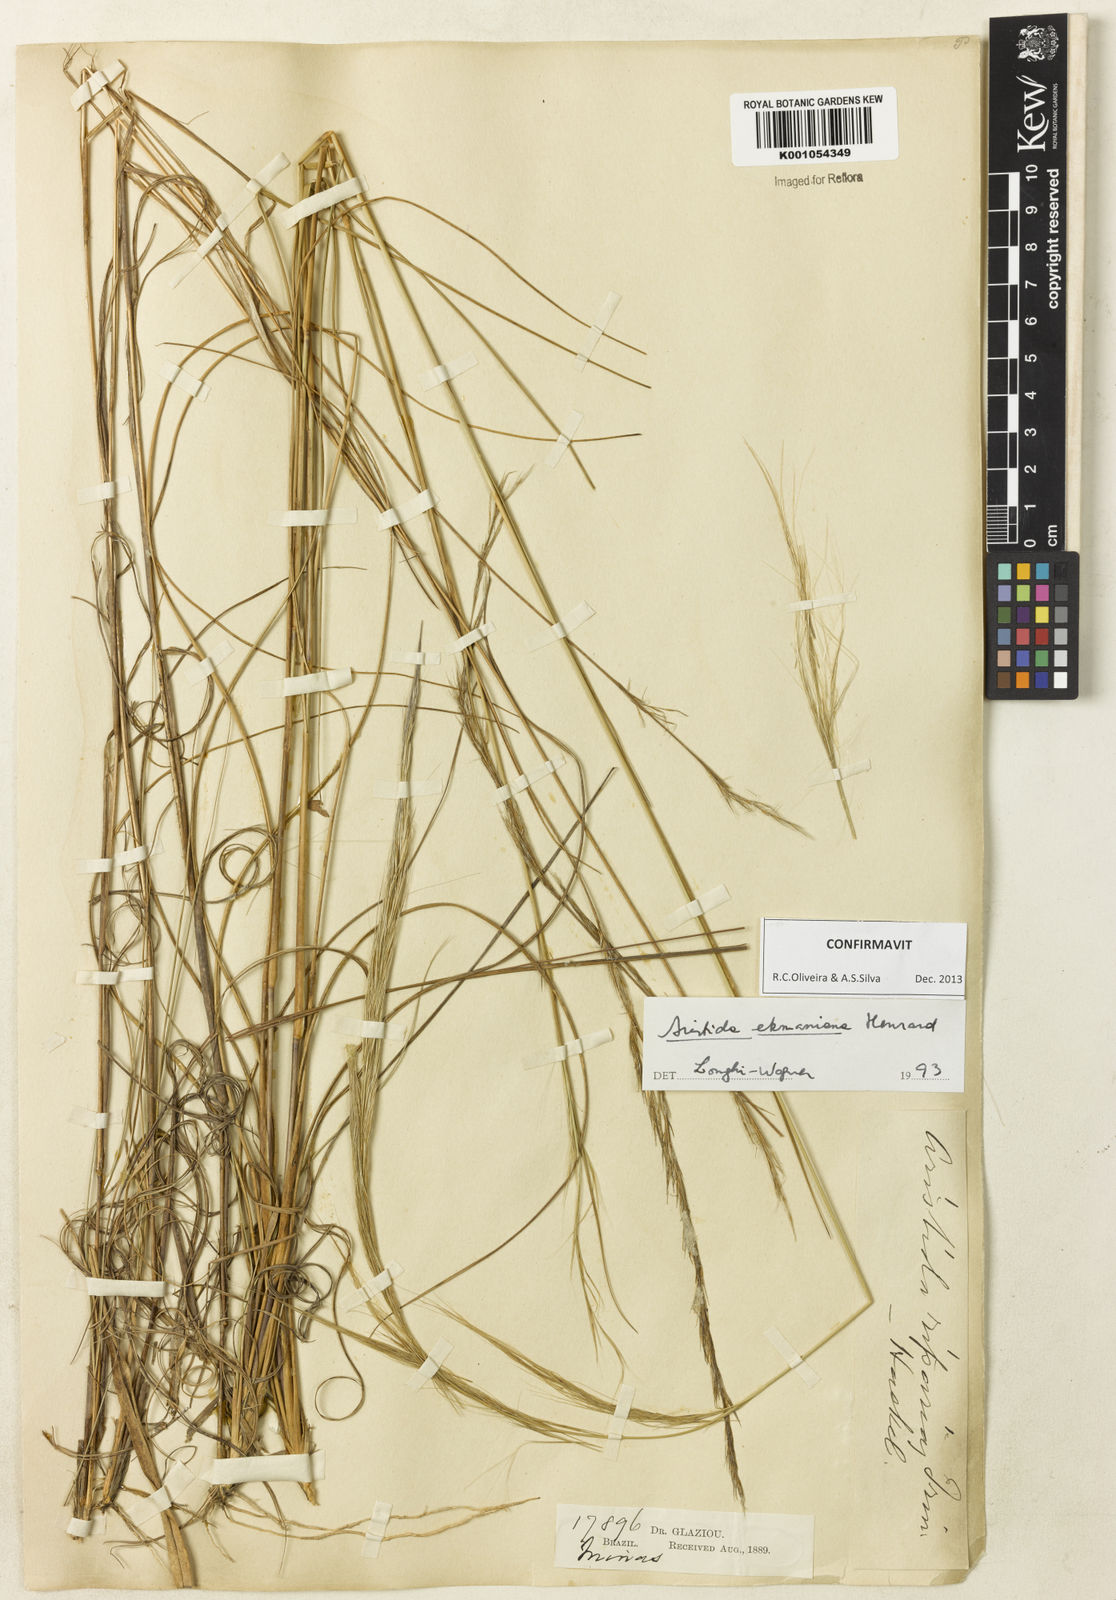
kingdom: Plantae
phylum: Tracheophyta
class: Liliopsida
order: Poales
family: Poaceae
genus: Aristida
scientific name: Aristida ekmaniana
